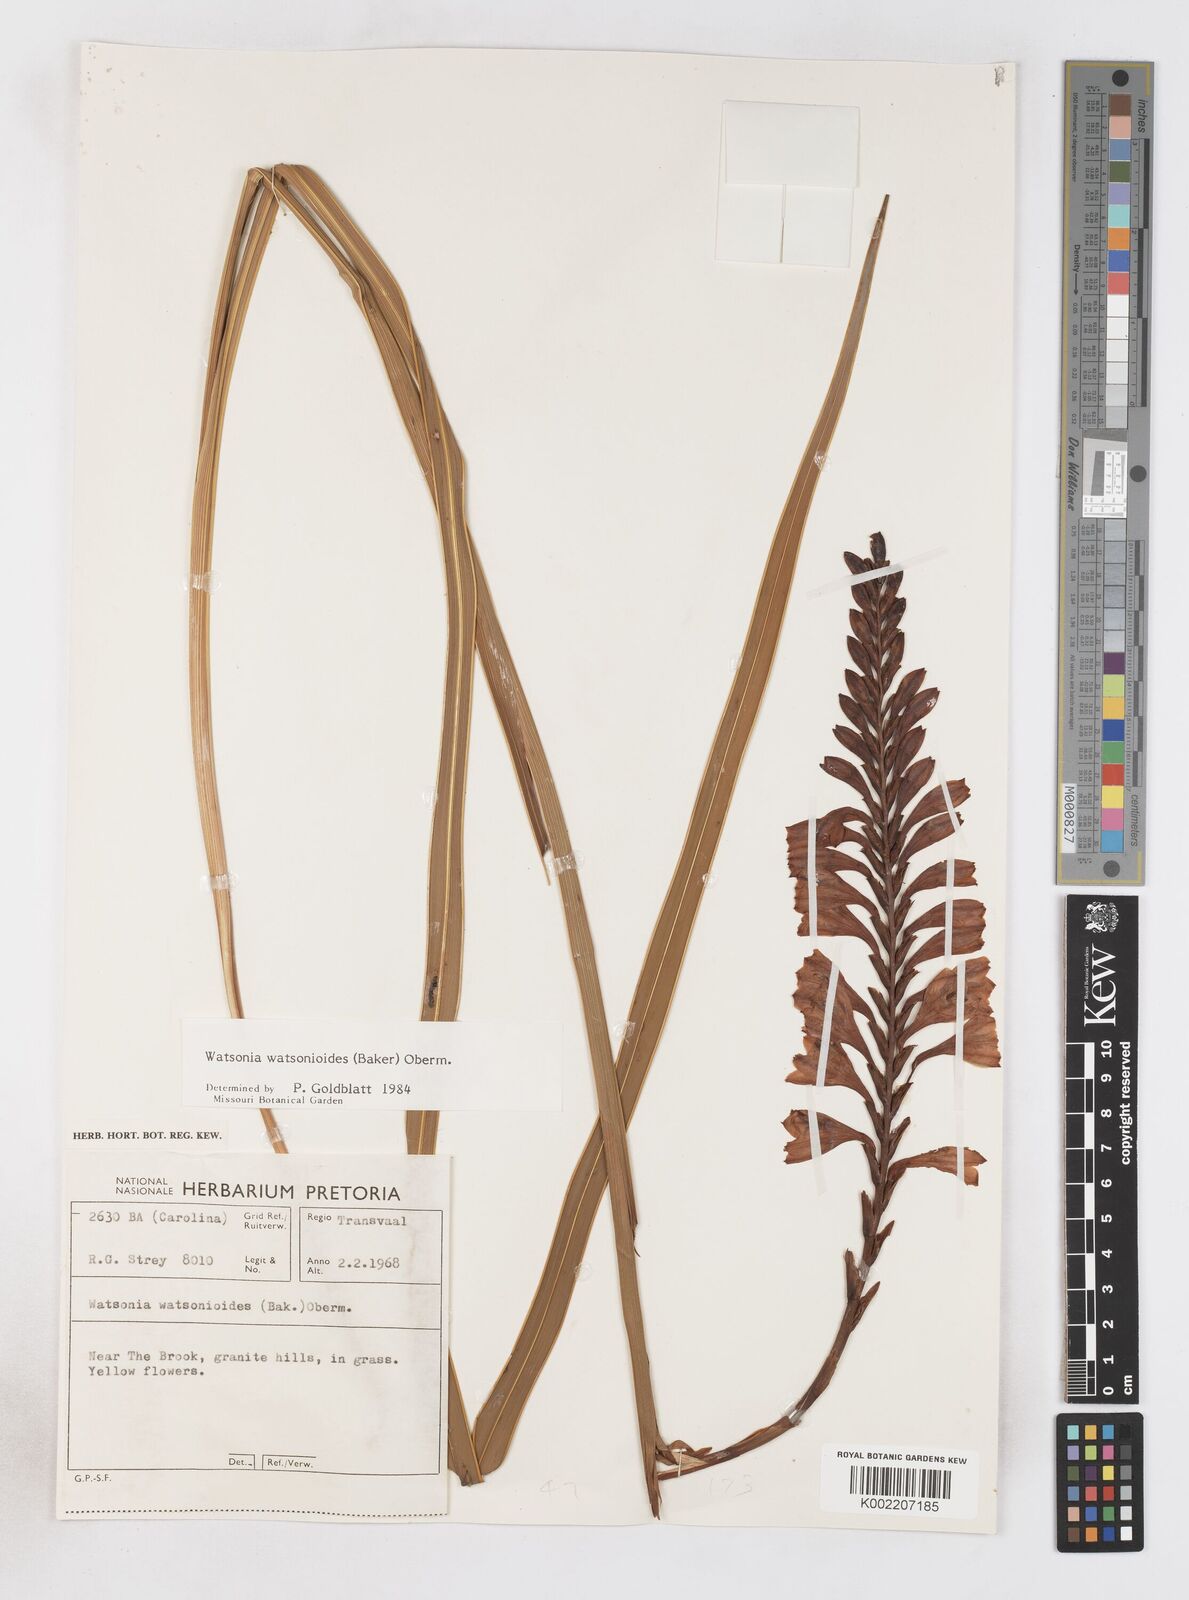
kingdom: Plantae
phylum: Tracheophyta
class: Liliopsida
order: Asparagales
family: Iridaceae
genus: Watsonia
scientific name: Watsonia watsonioides
